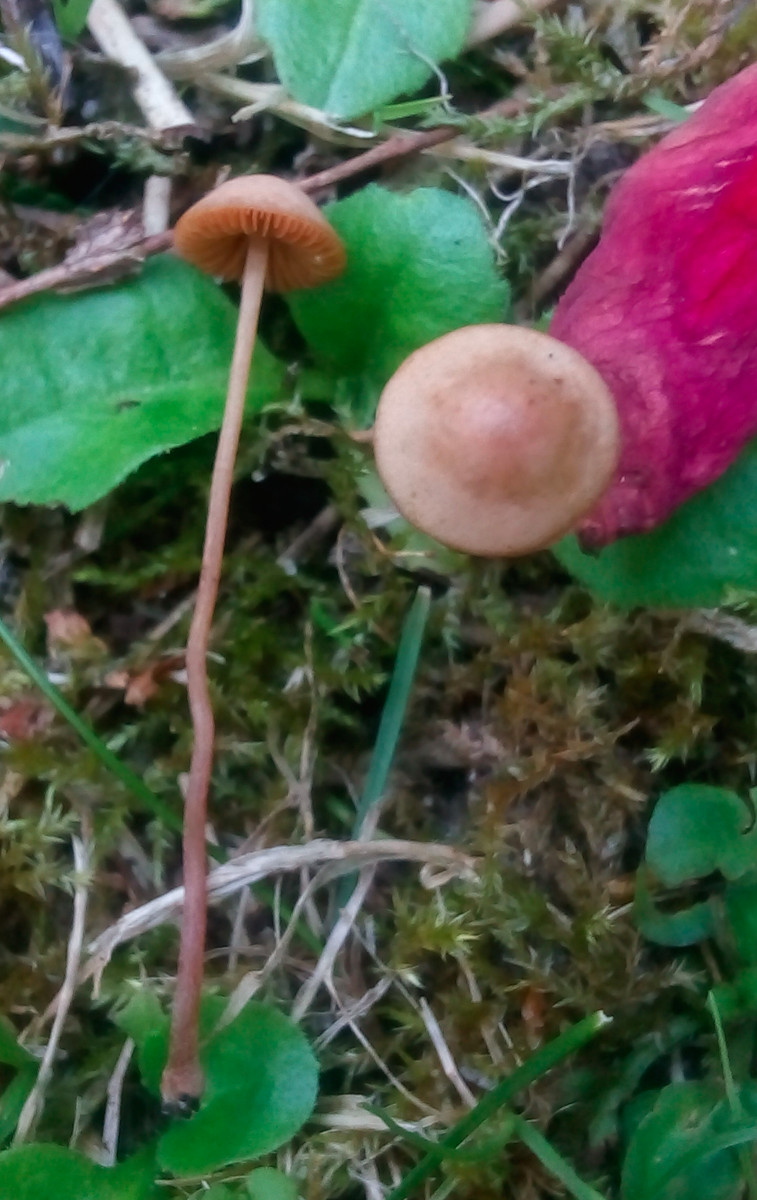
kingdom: Fungi
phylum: Basidiomycota
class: Agaricomycetes
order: Agaricales
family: Bolbitiaceae
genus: Conocybe
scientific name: Conocybe juniana
